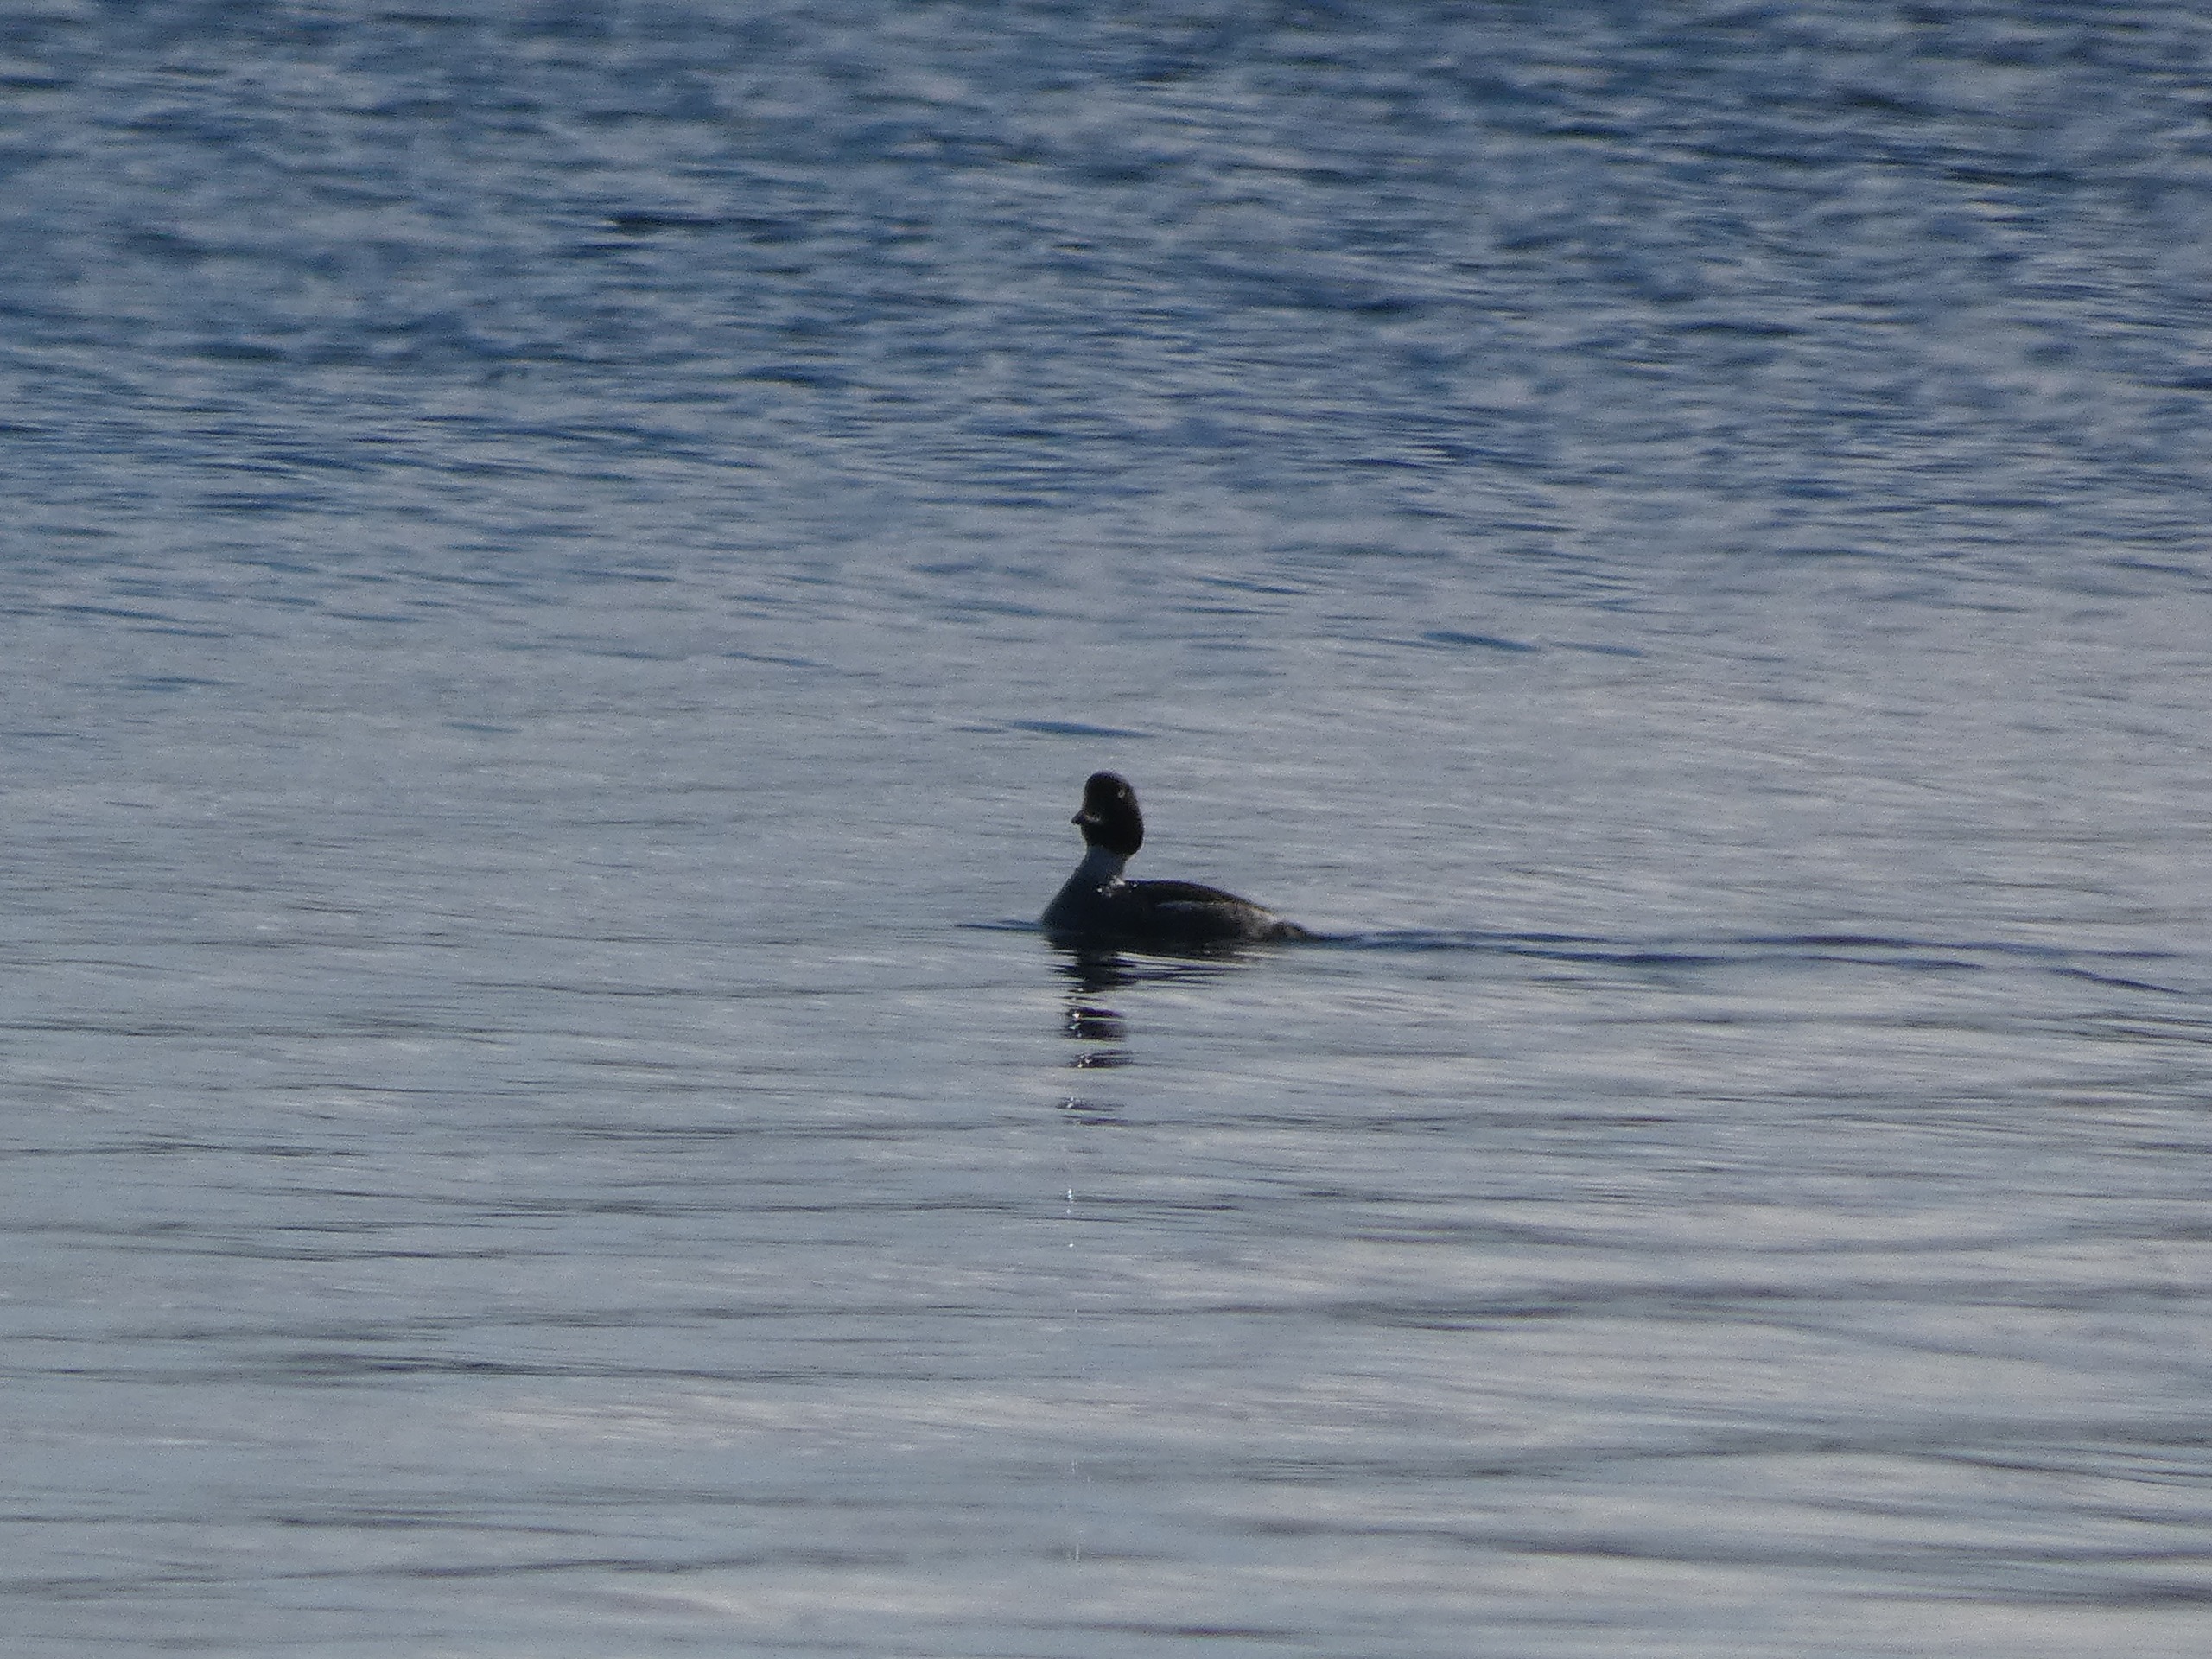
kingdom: Animalia
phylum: Chordata
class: Aves
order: Anseriformes
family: Anatidae
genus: Bucephala
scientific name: Bucephala clangula
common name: Hvinand
